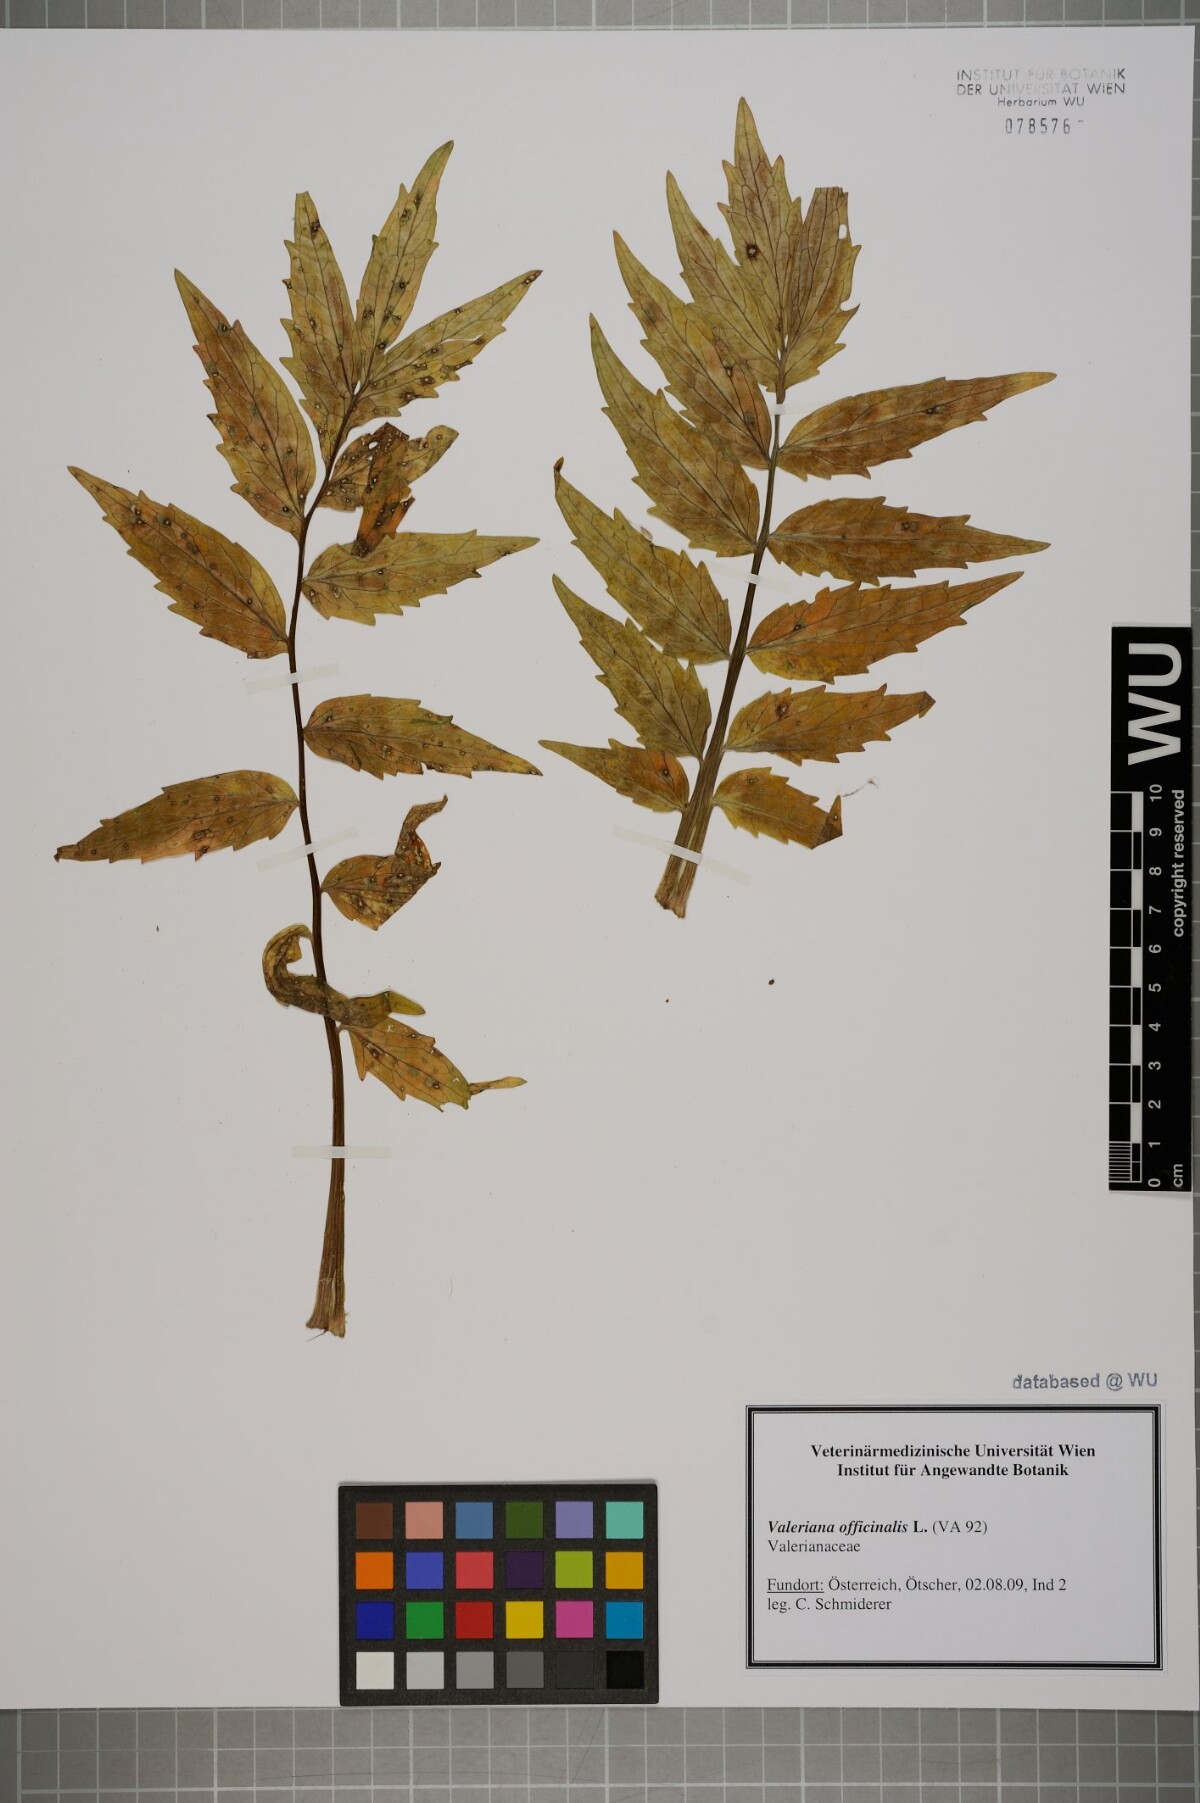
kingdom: Plantae
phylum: Tracheophyta
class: Magnoliopsida
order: Dipsacales
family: Caprifoliaceae
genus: Valeriana
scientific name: Valeriana officinalis
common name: Common valerian
